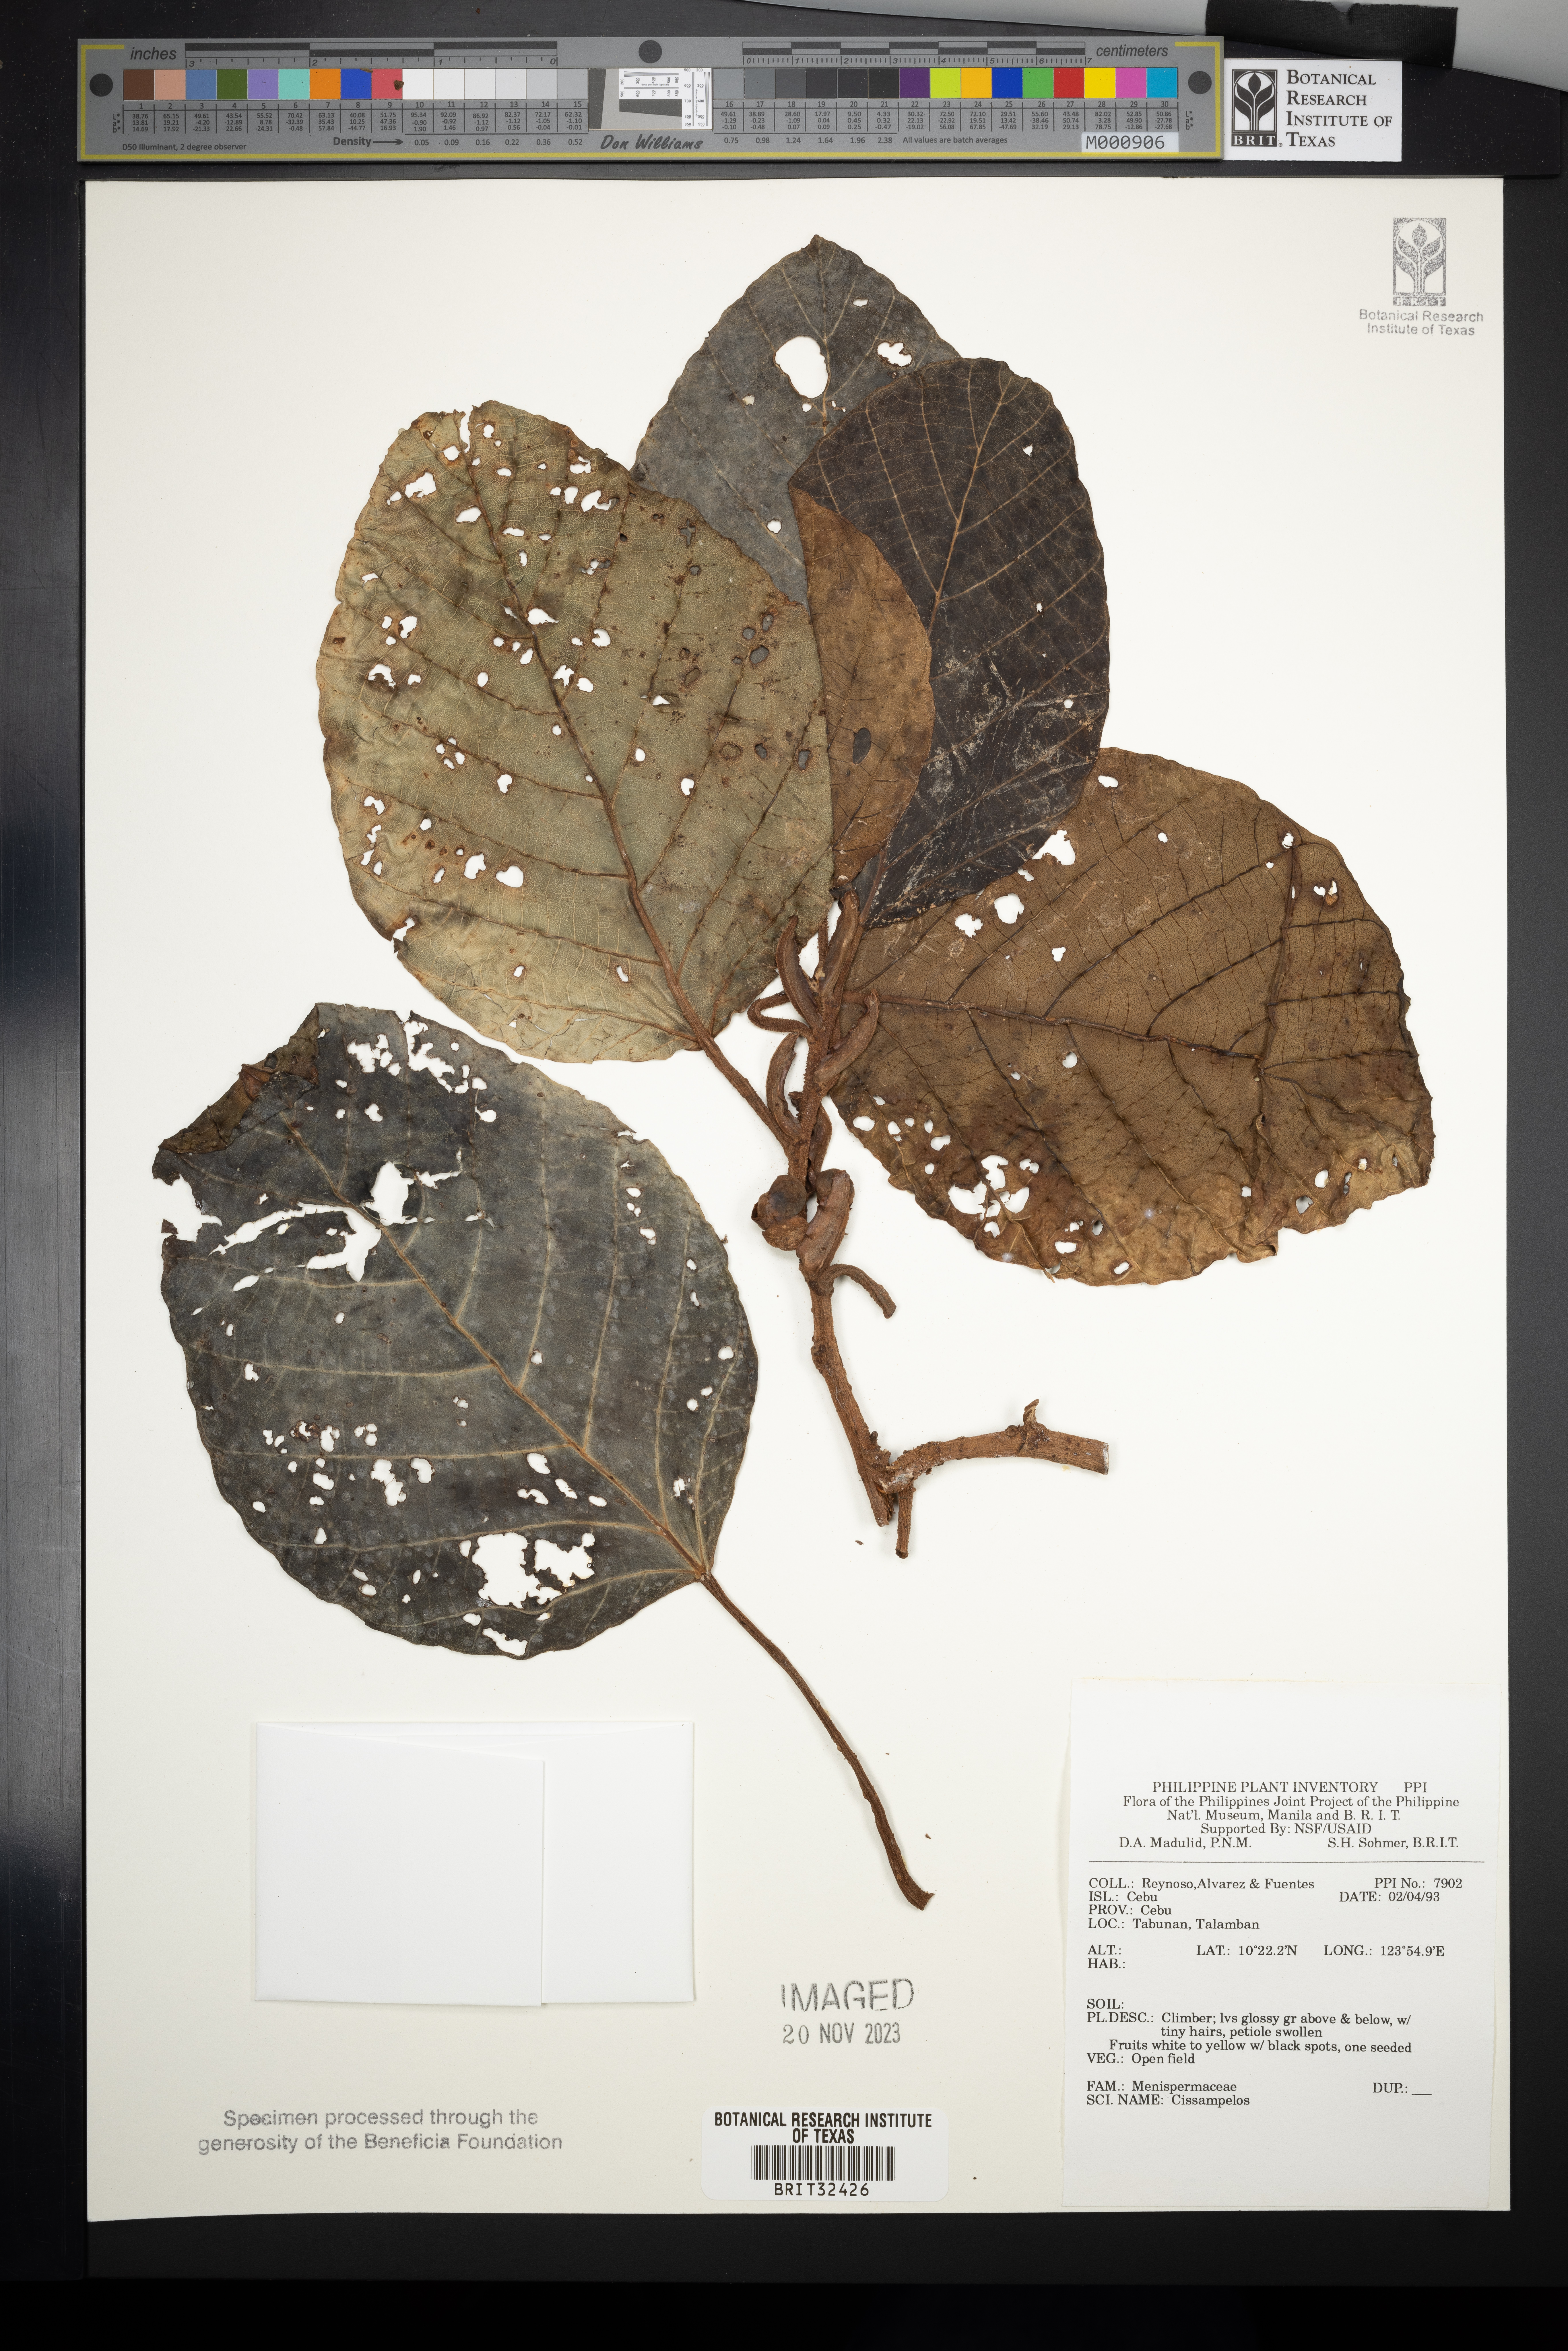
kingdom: Plantae
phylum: Tracheophyta
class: Magnoliopsida
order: Ranunculales
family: Menispermaceae
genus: Cissampelos
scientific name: Cissampelos
